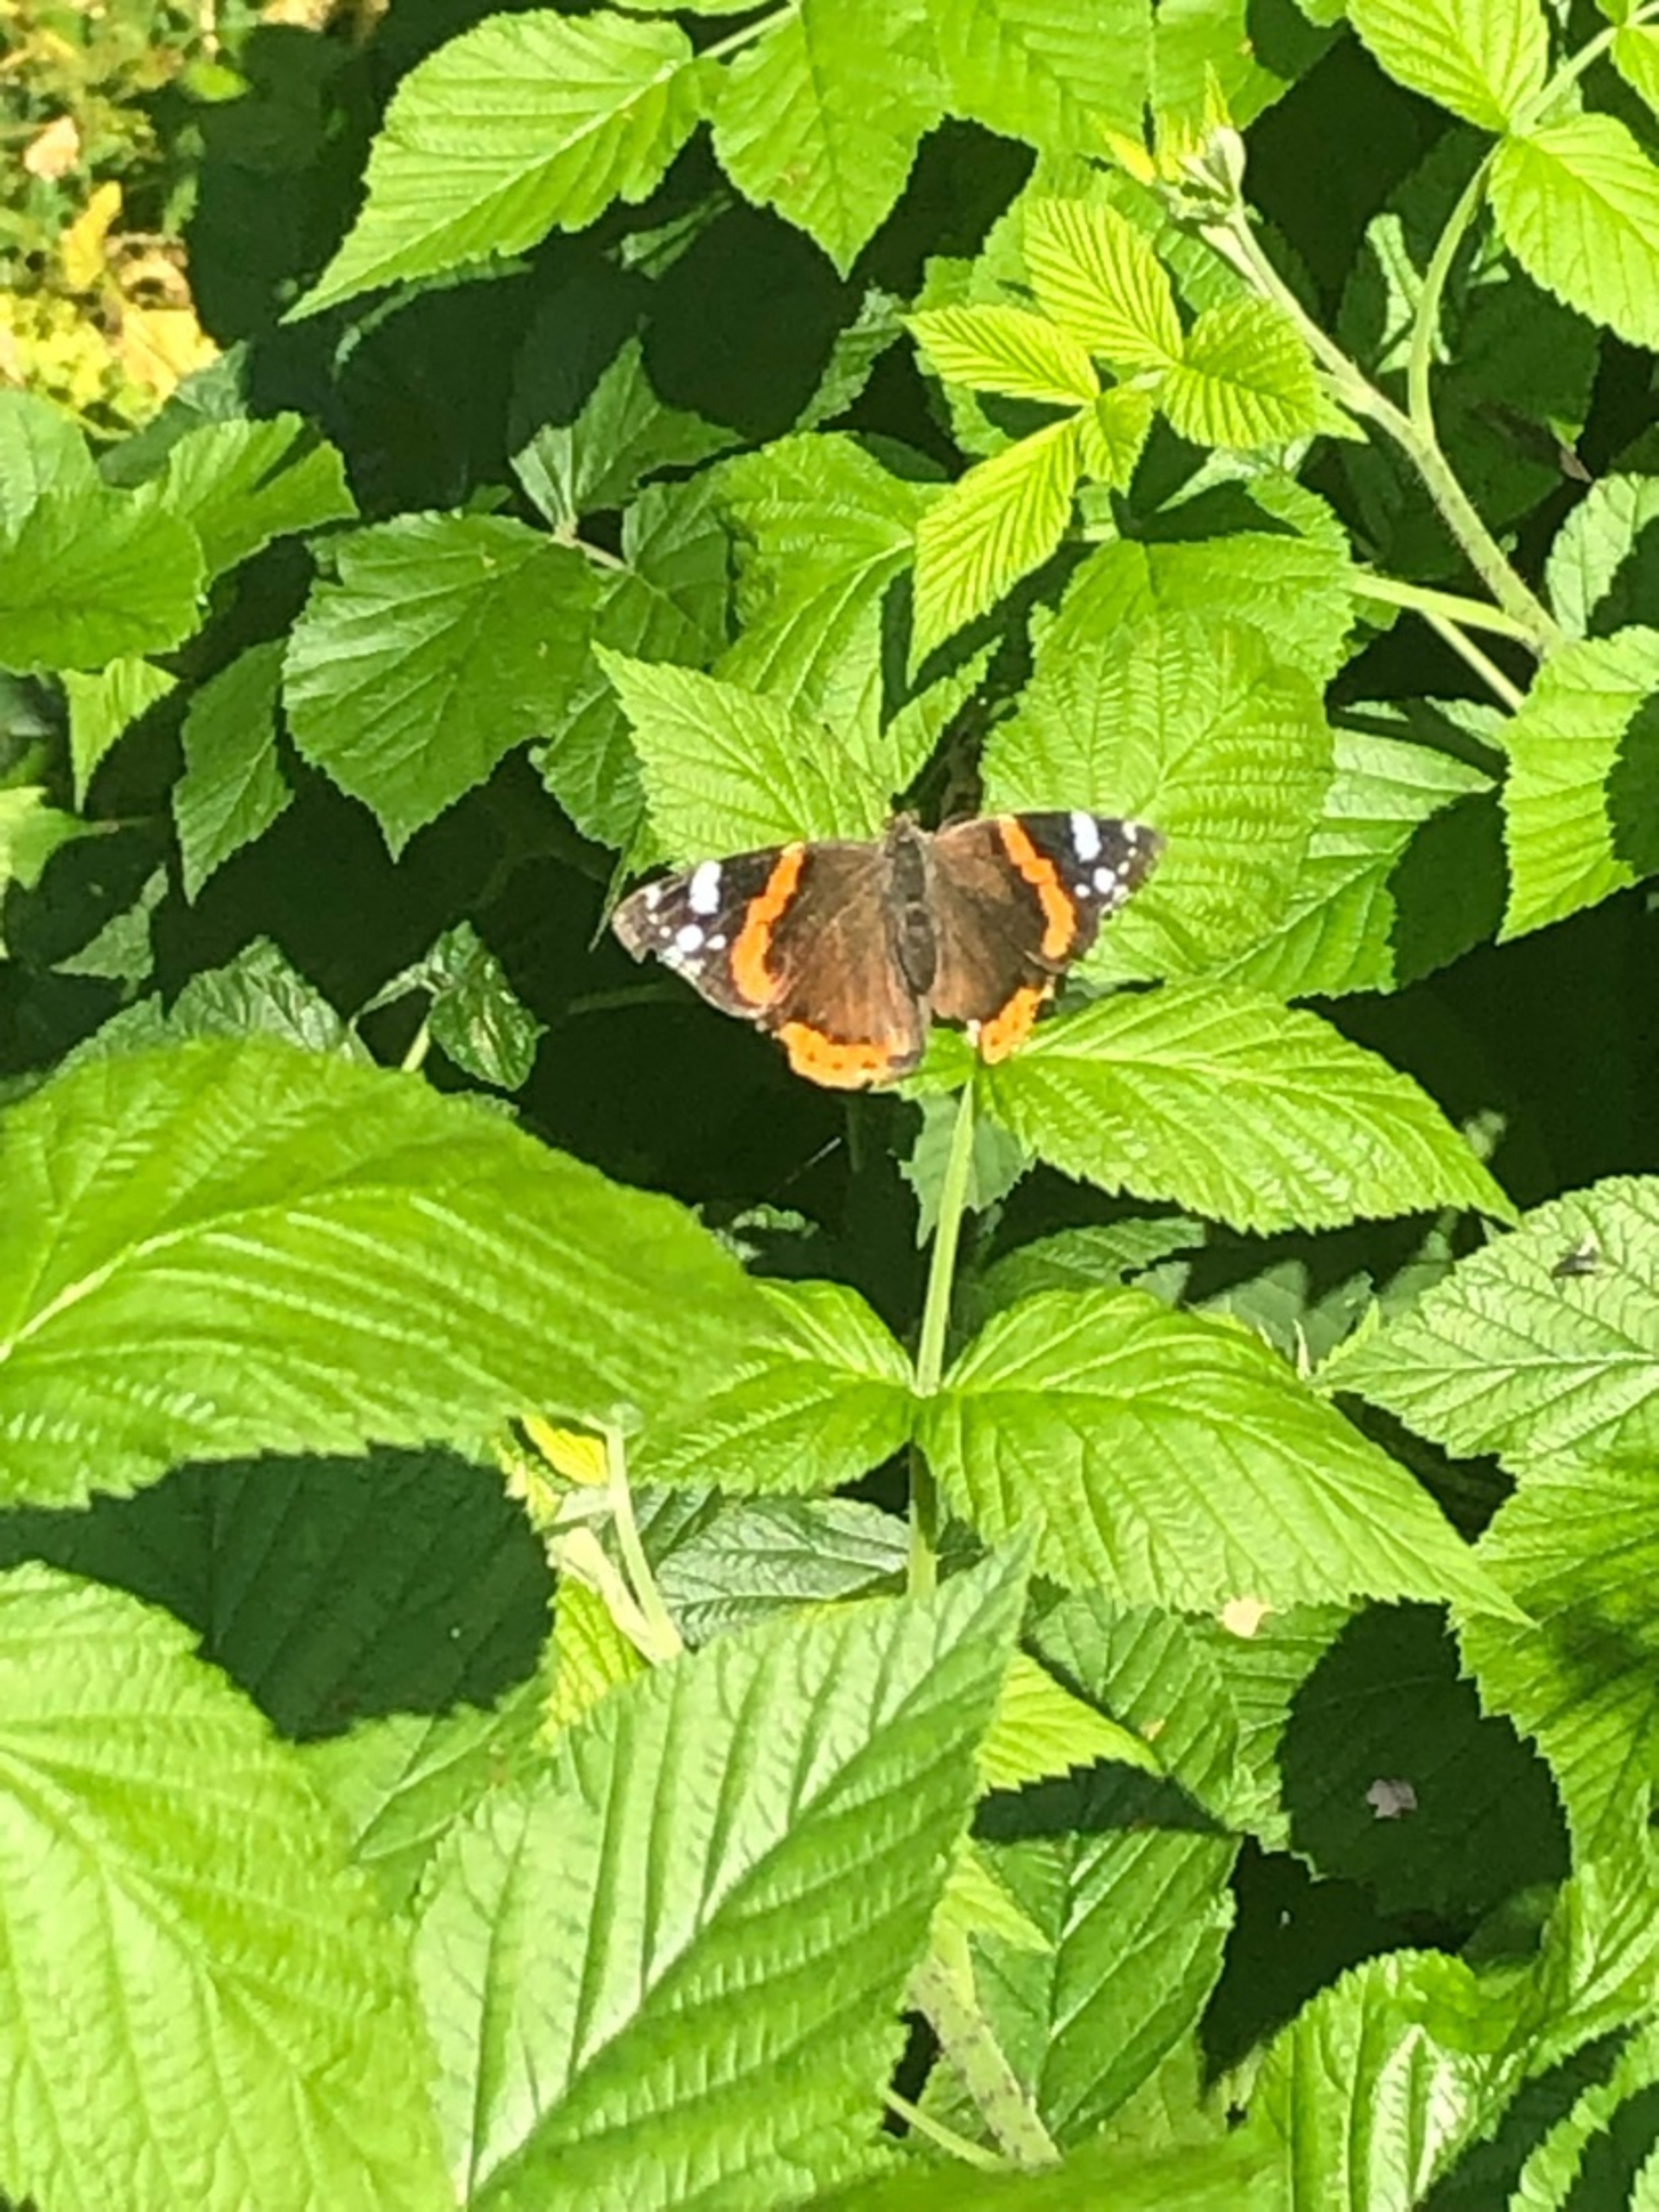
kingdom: Animalia
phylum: Arthropoda
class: Insecta
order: Lepidoptera
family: Nymphalidae
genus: Vanessa
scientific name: Vanessa atalanta
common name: Admiral
